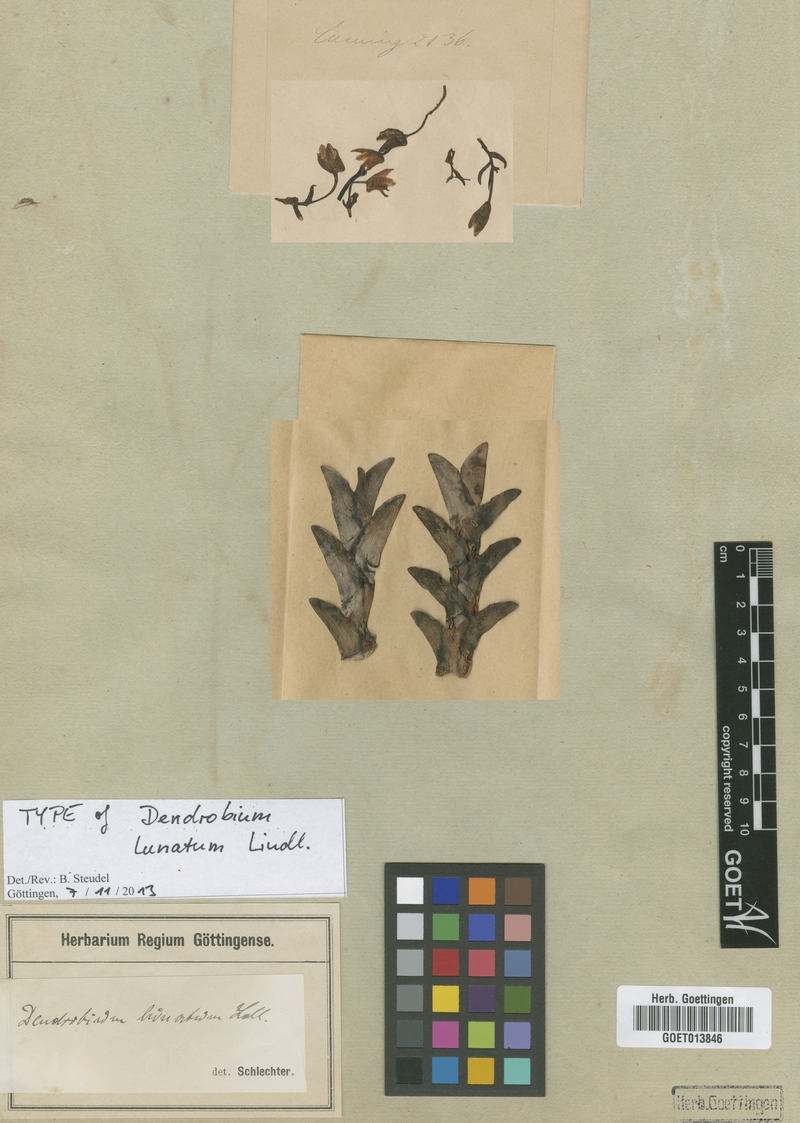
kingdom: Plantae
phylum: Tracheophyta
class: Liliopsida
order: Asparagales
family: Orchidaceae
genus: Dendrobium
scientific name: Dendrobium lunatum
